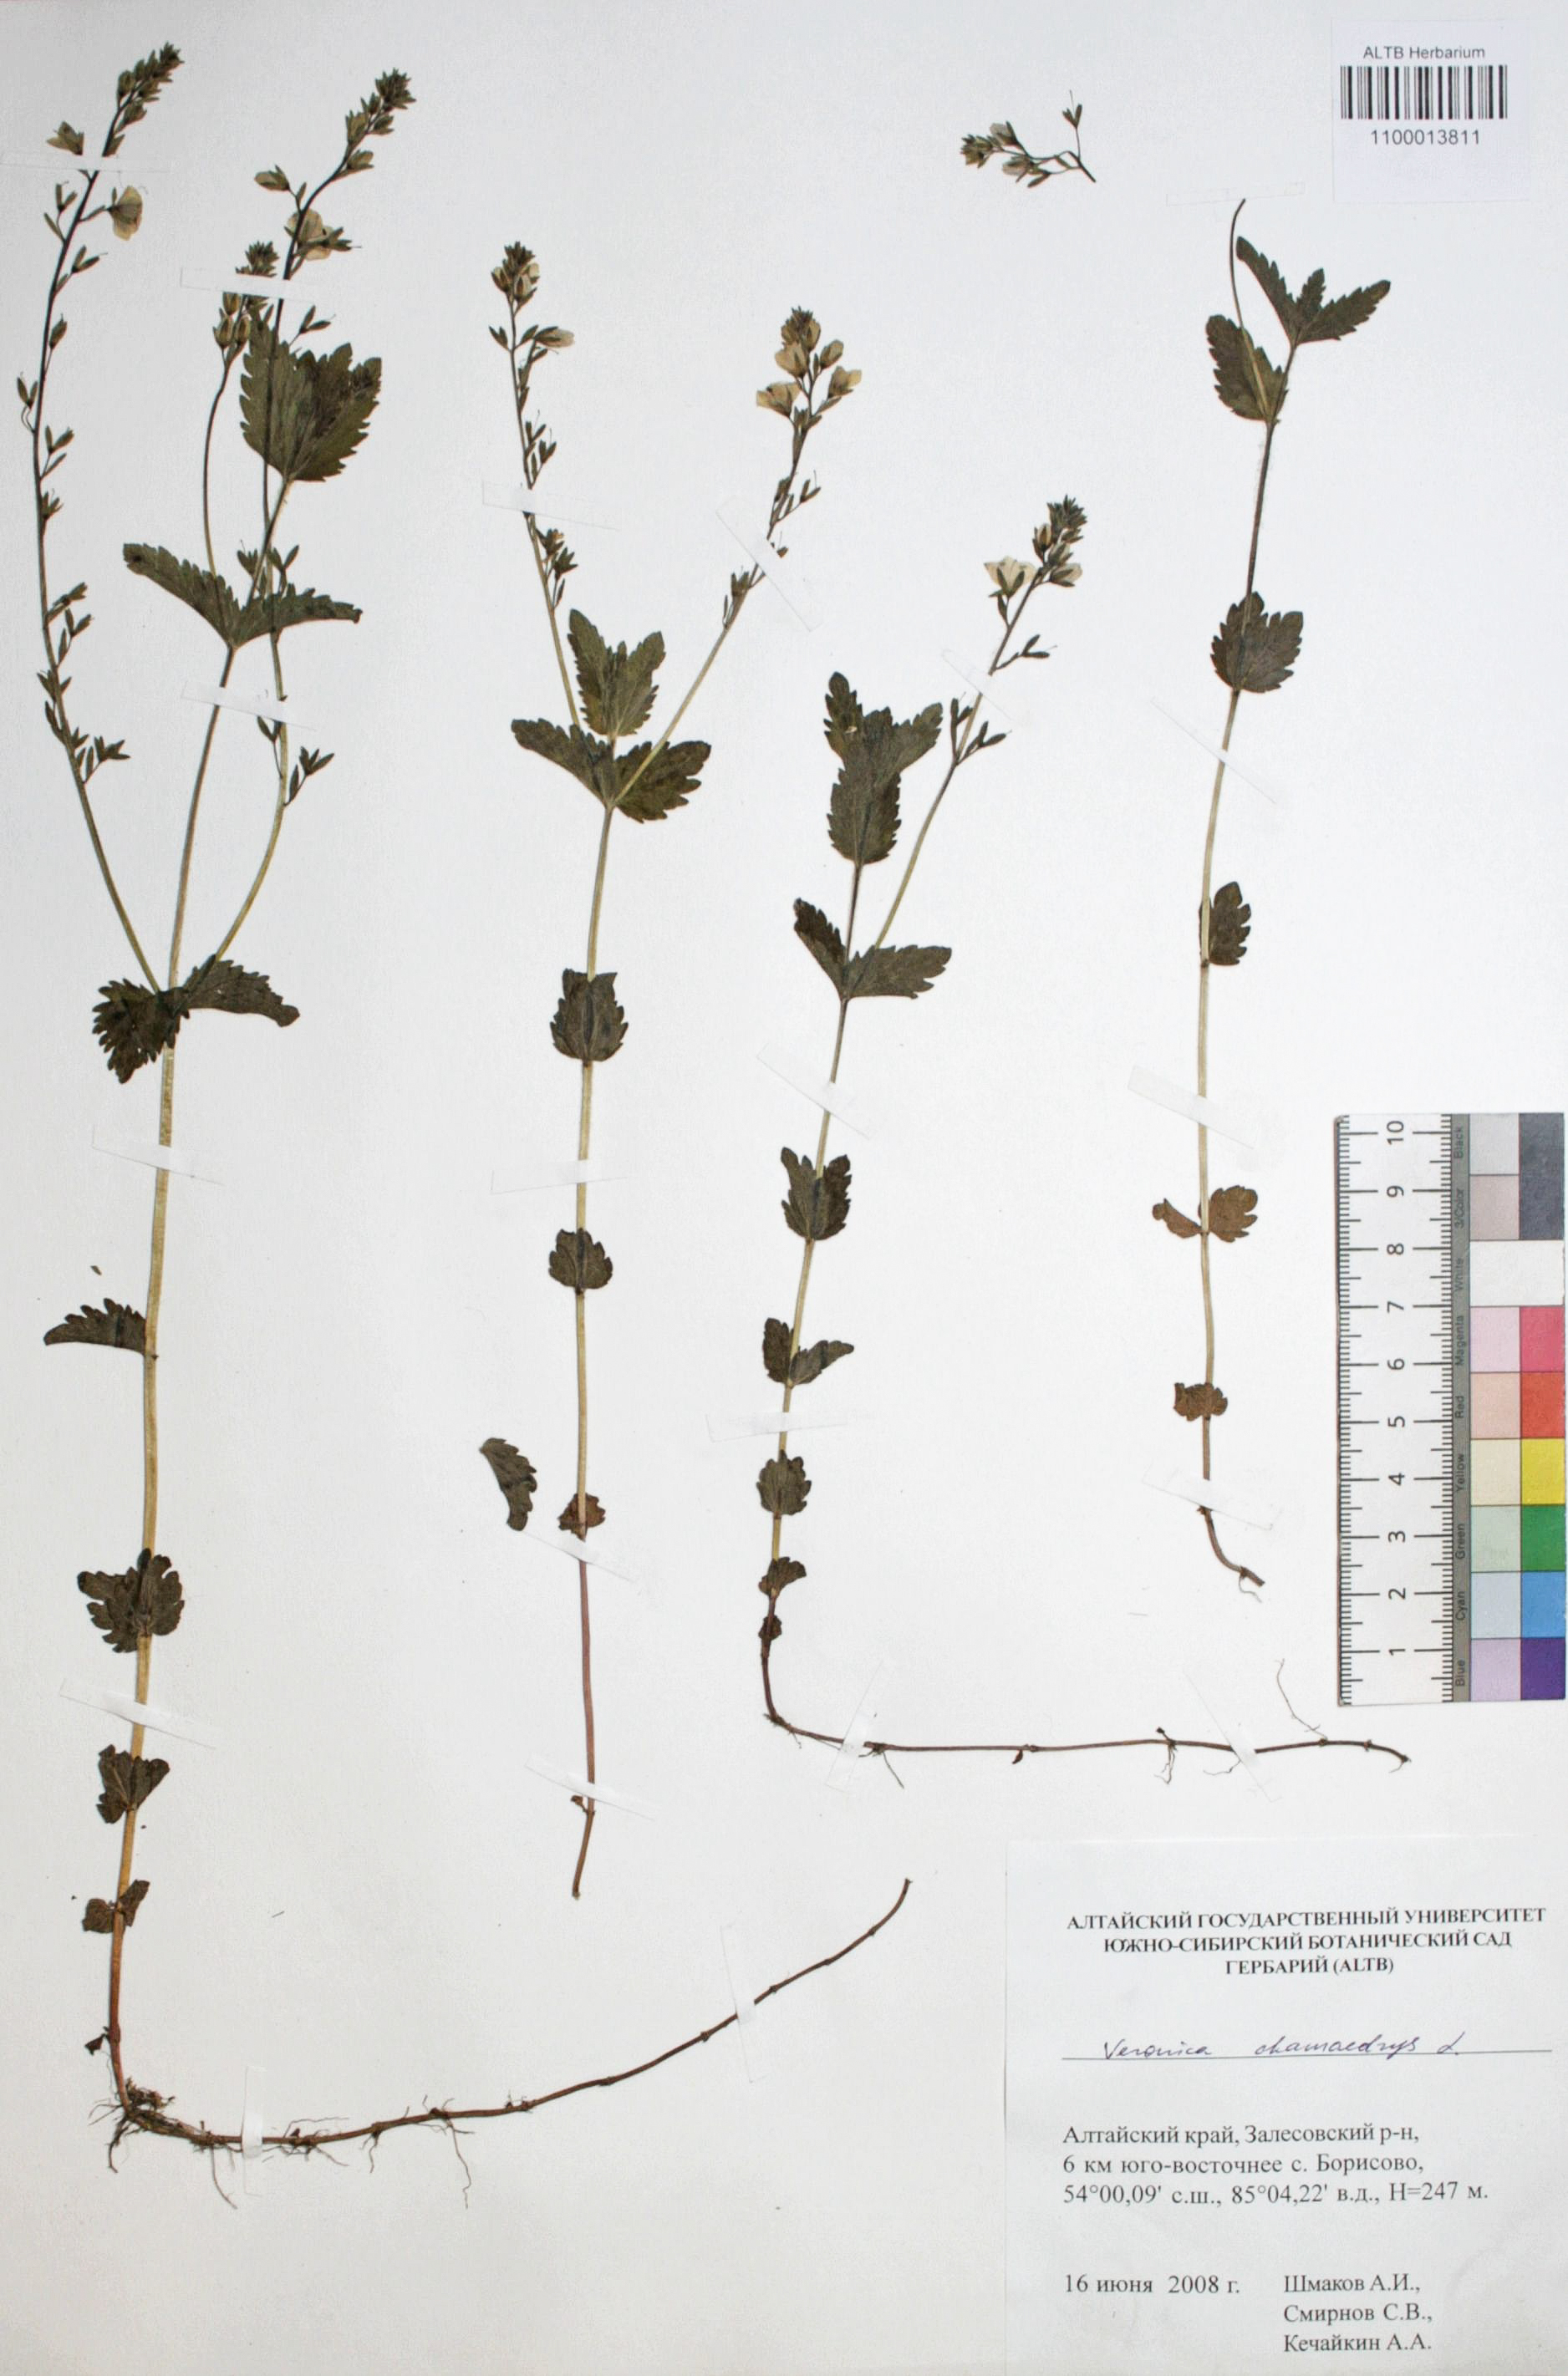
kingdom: Plantae
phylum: Tracheophyta
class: Magnoliopsida
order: Lamiales
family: Plantaginaceae
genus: Veronica
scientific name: Veronica chamaedrys
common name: Germander speedwell
